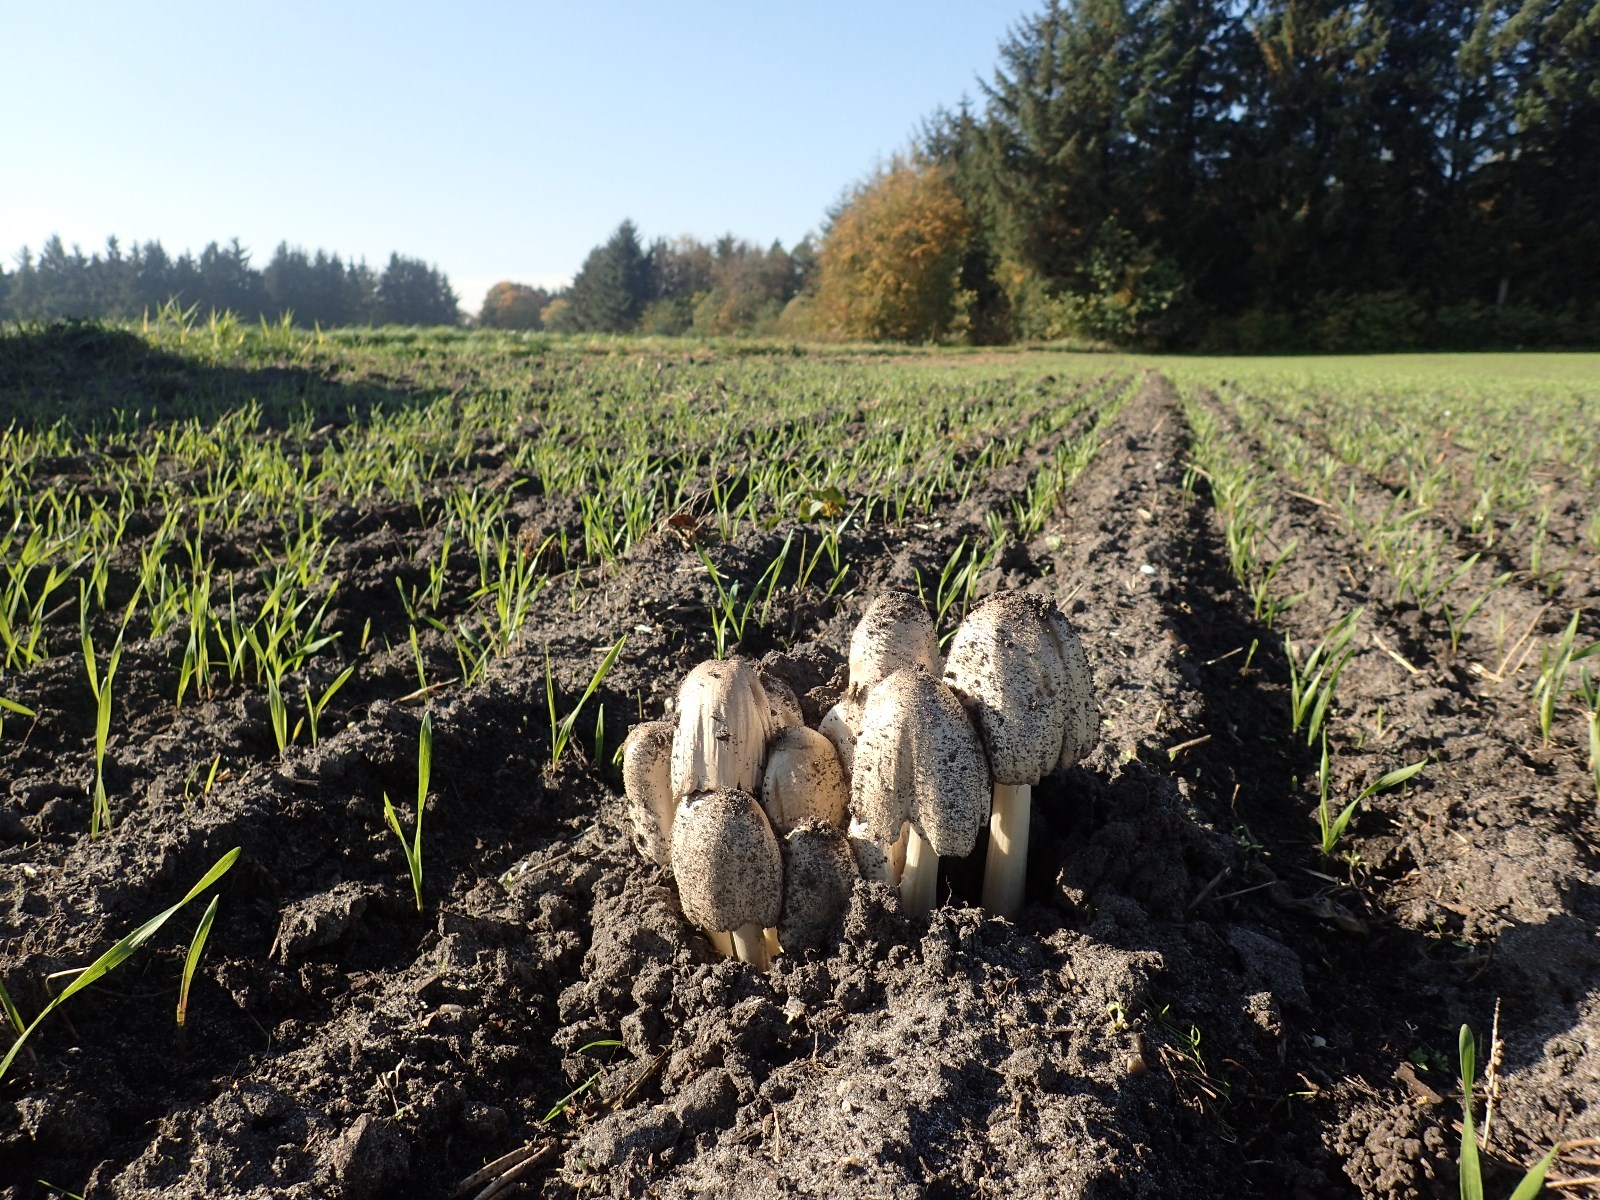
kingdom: Fungi
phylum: Basidiomycota
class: Agaricomycetes
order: Agaricales
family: Psathyrellaceae
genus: Coprinopsis
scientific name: Coprinopsis atramentaria
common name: almindelig blækhat
